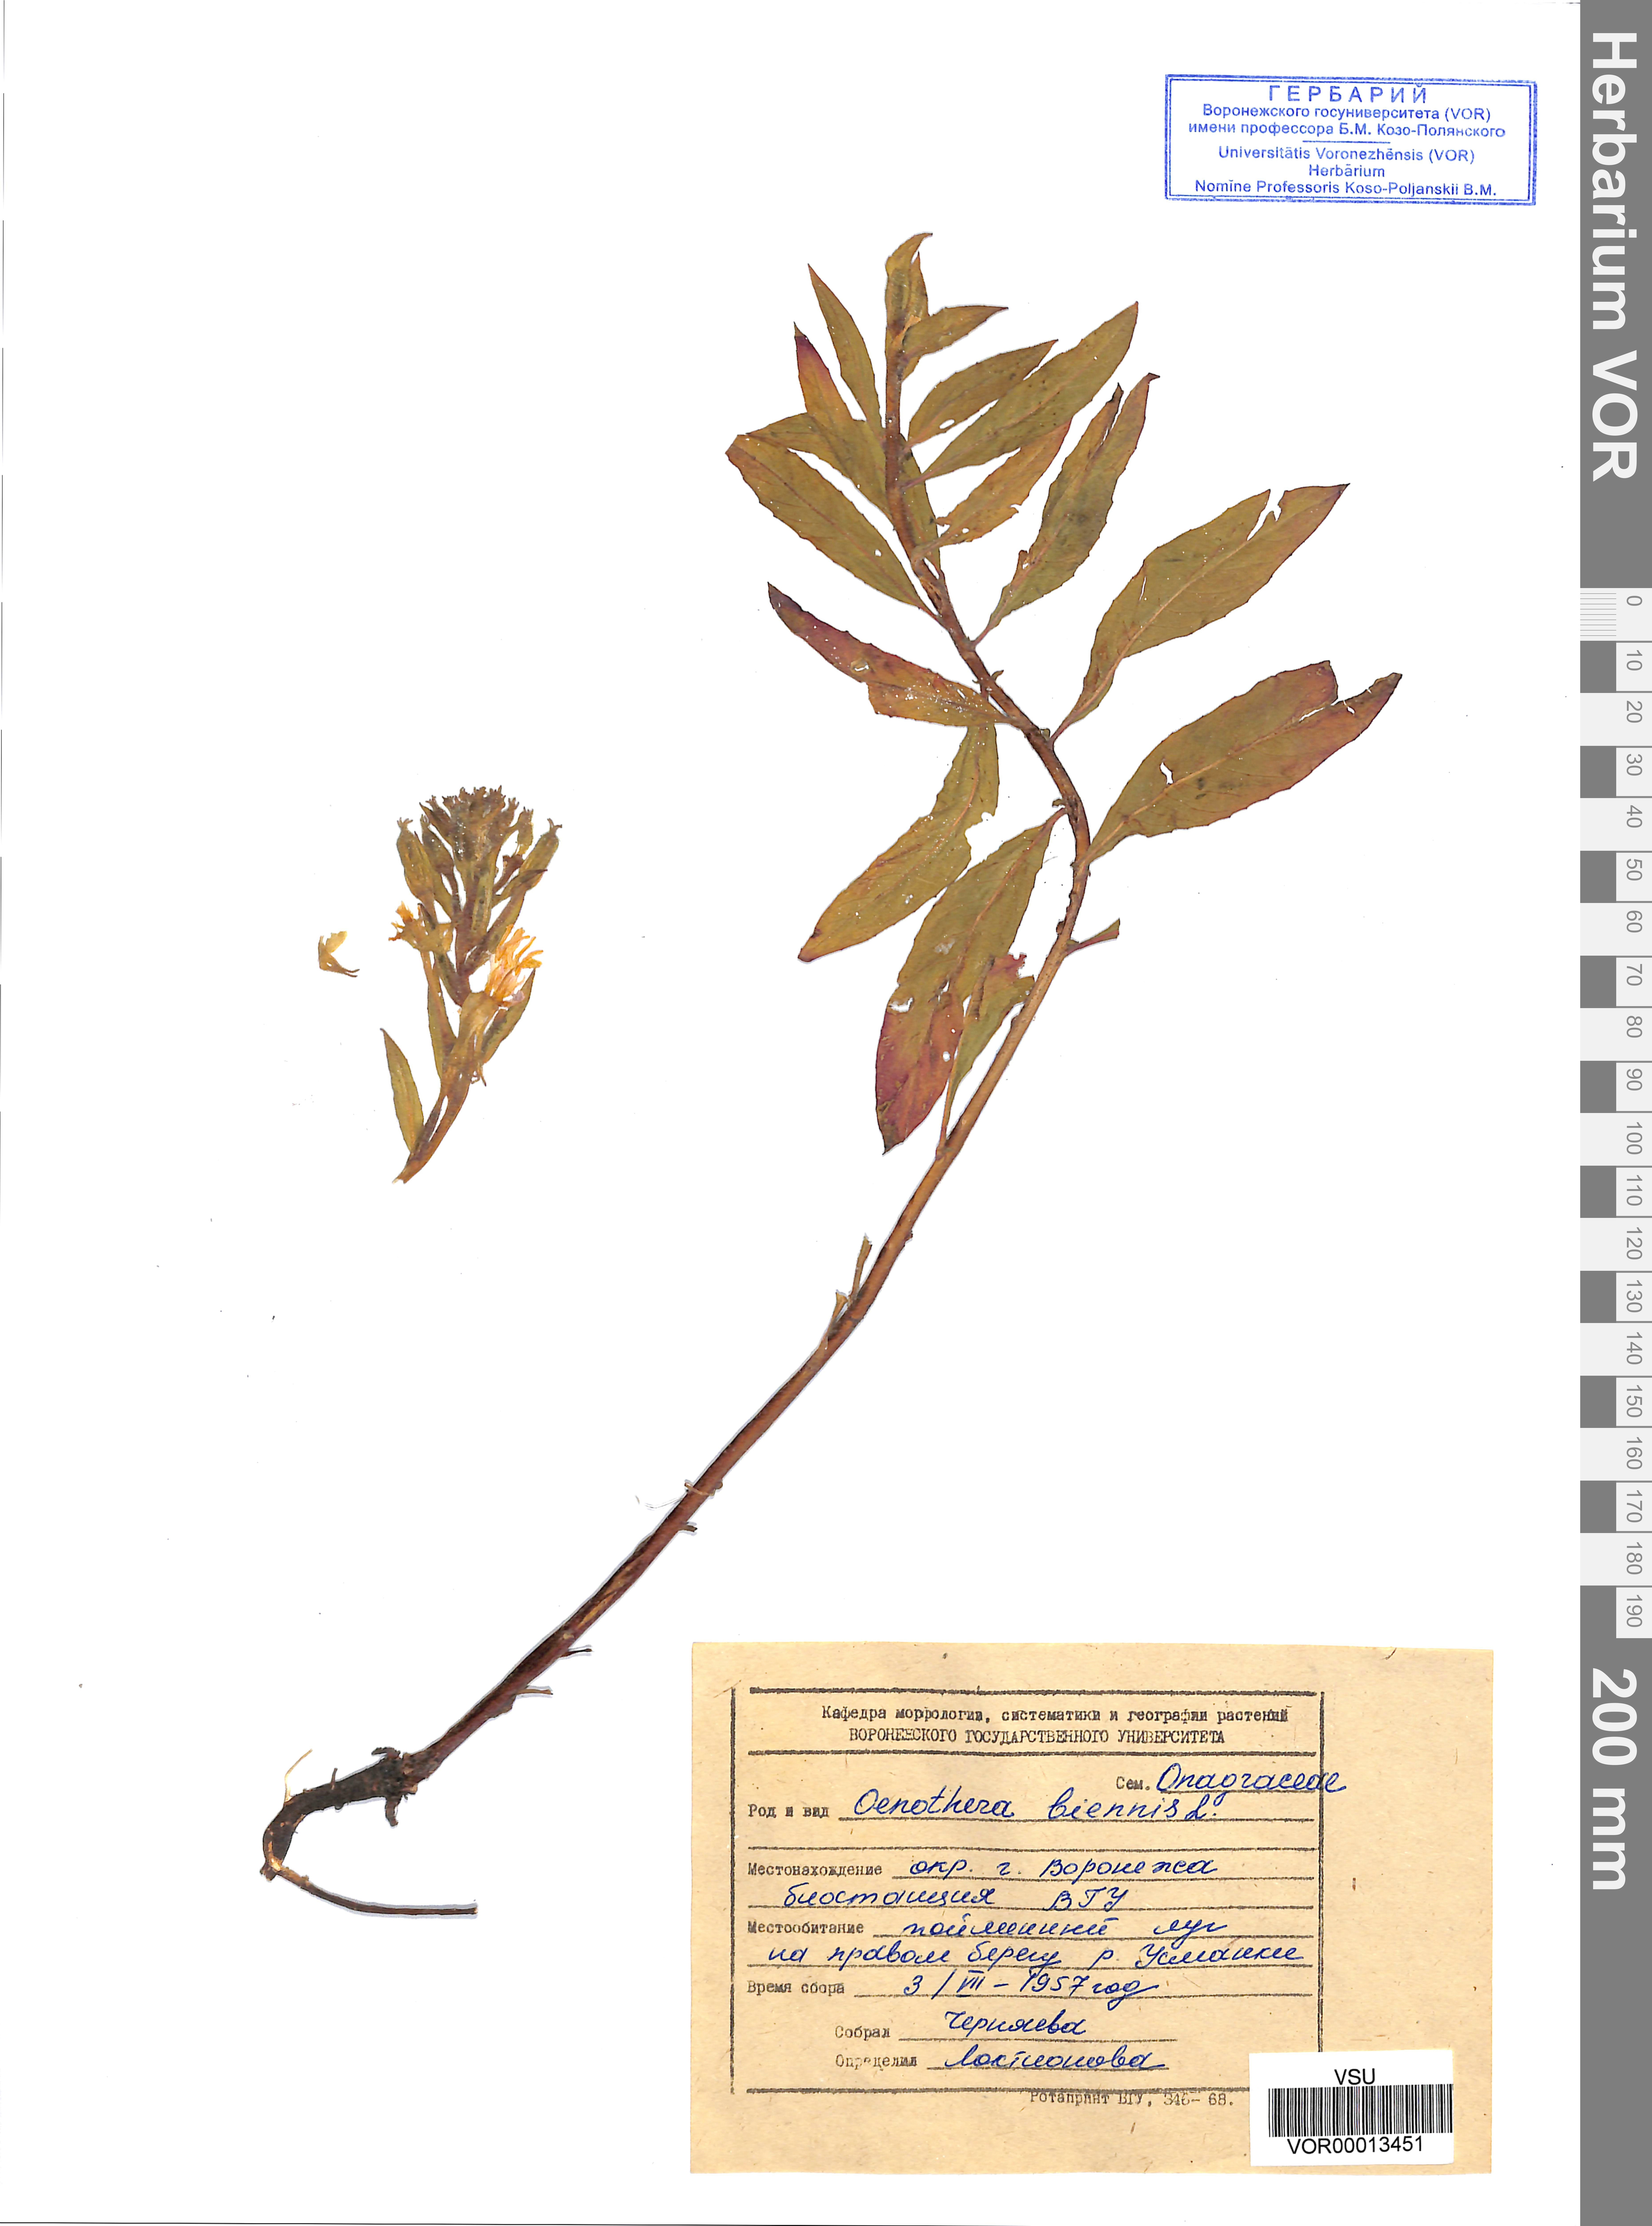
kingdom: Plantae
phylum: Tracheophyta
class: Magnoliopsida
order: Myrtales
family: Onagraceae
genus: Oenothera
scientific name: Oenothera biennis
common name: Common evening-primrose
